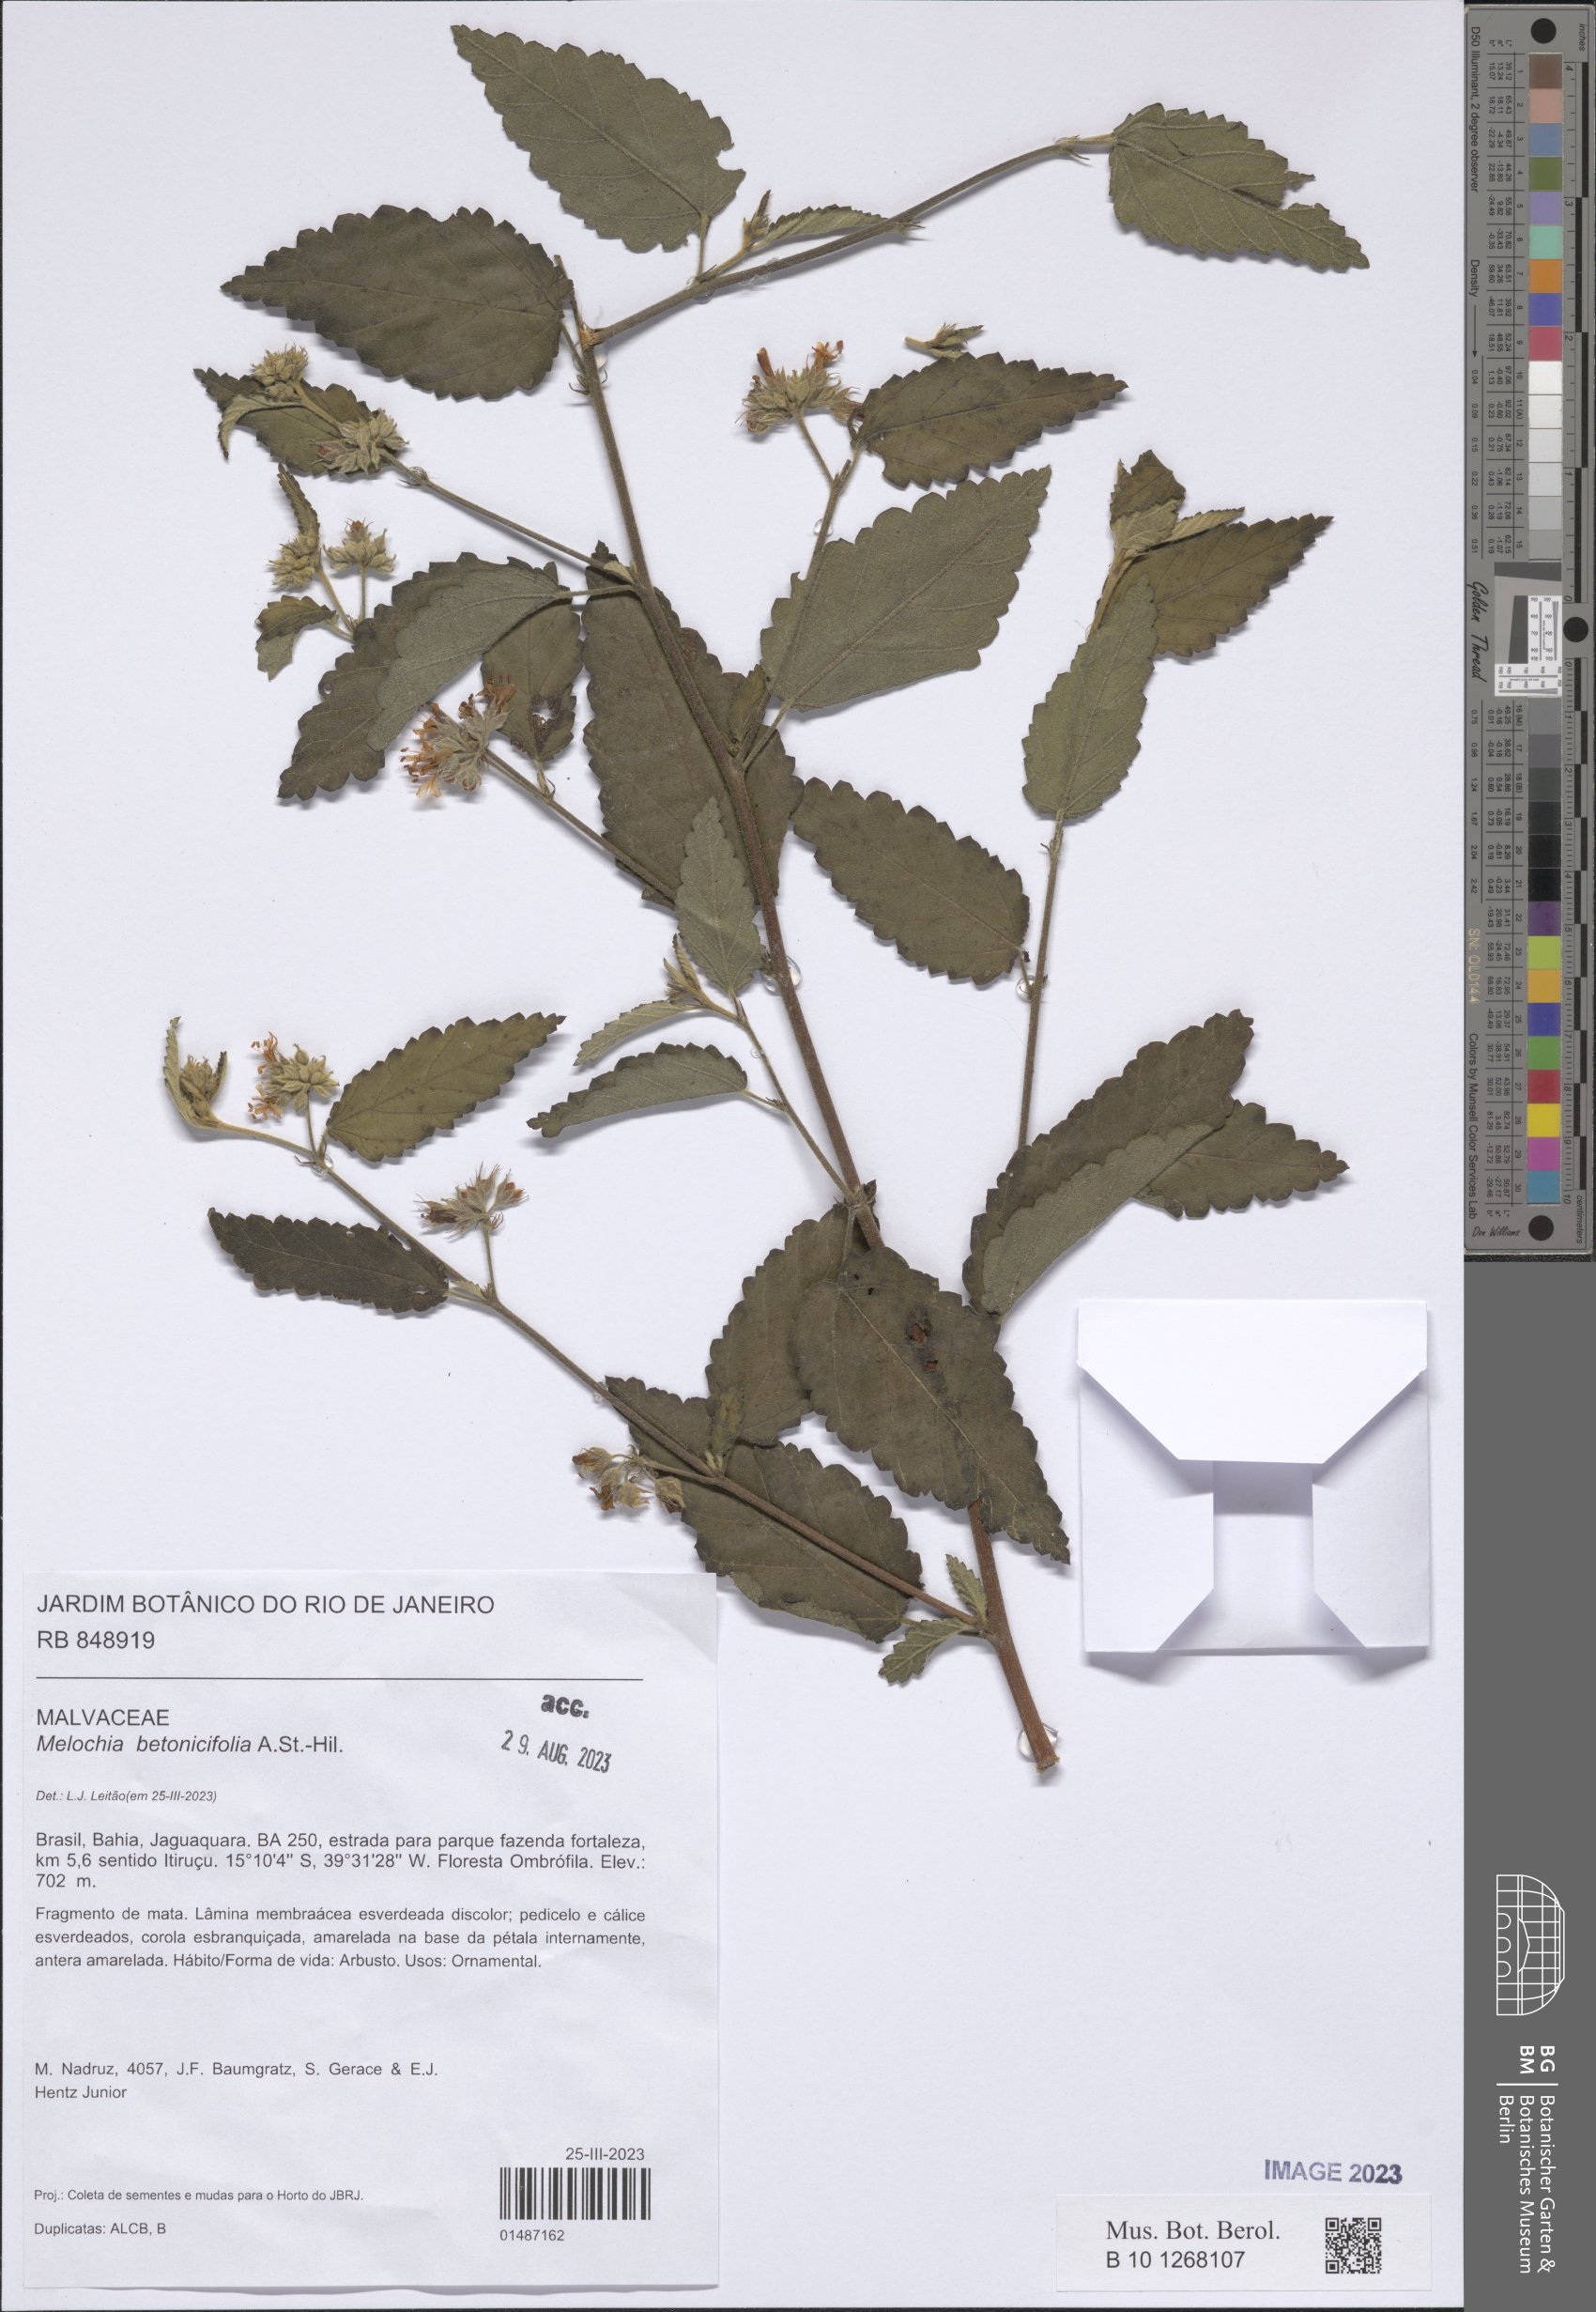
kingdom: Plantae
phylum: Tracheophyta
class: Magnoliopsida
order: Malvales
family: Malvaceae
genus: Melochia
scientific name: Melochia betonicifolia
